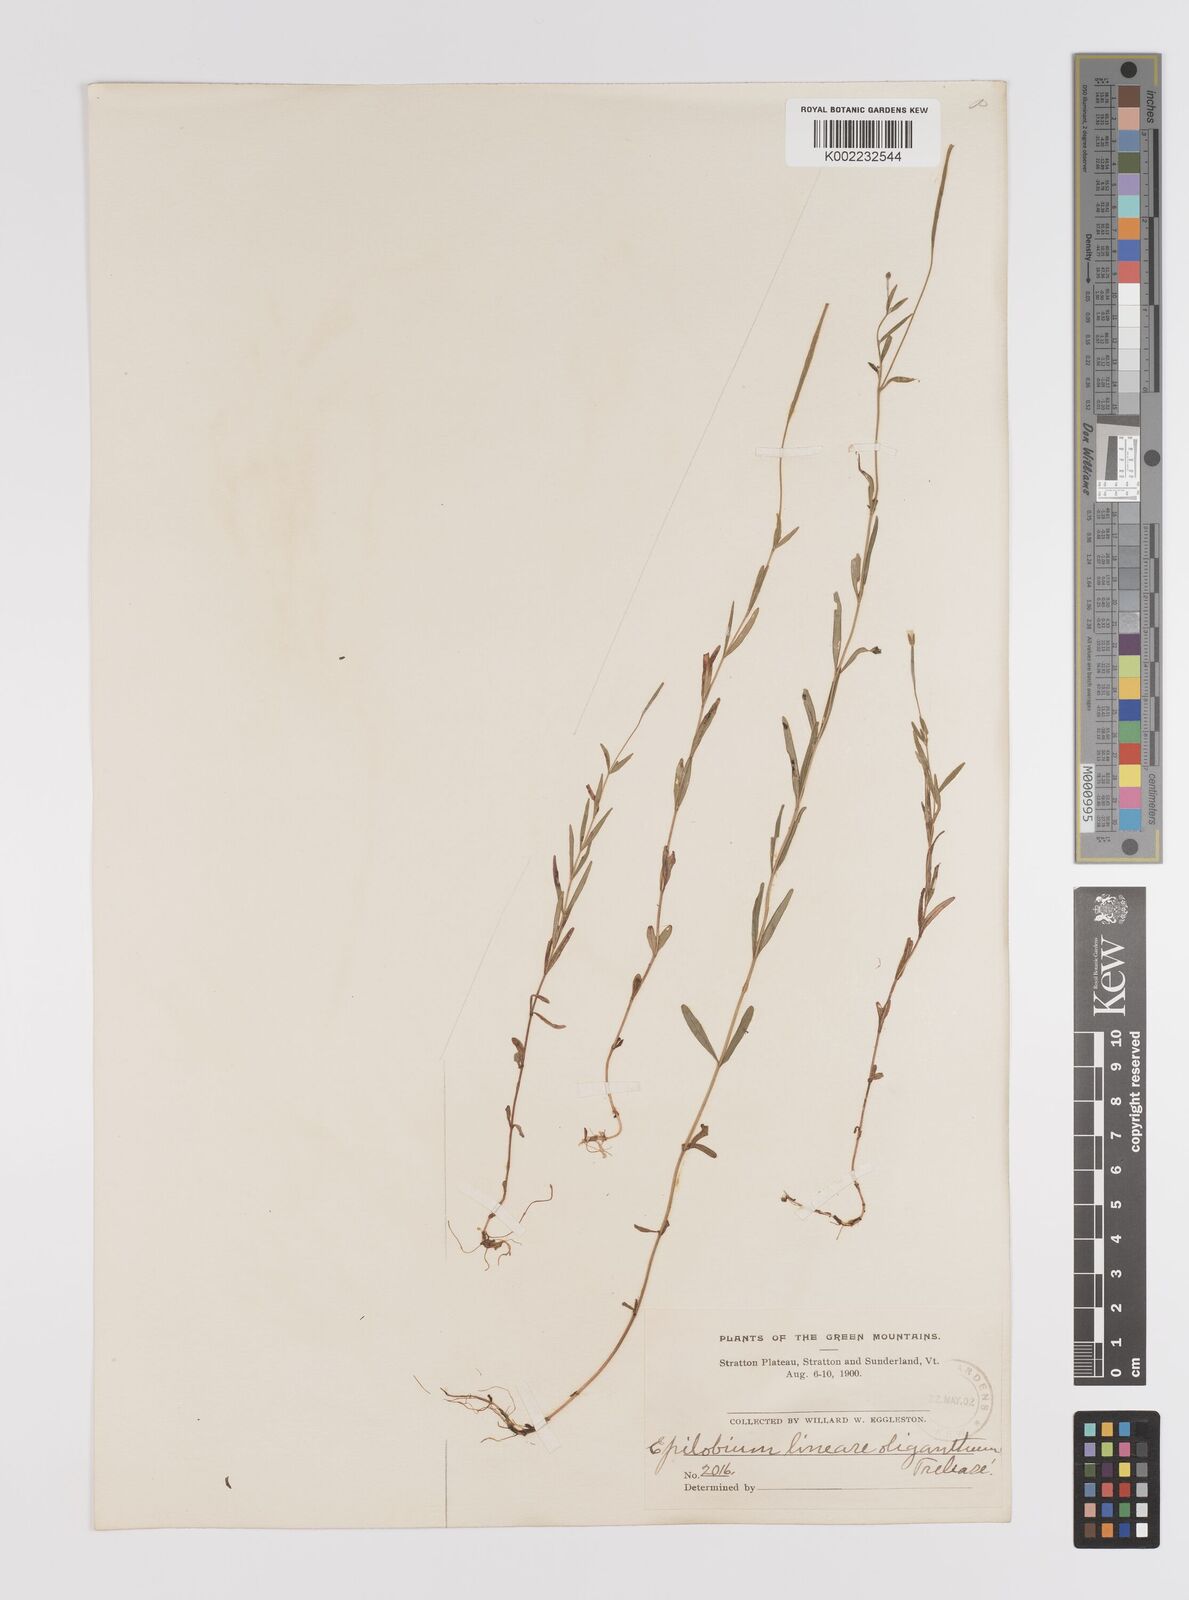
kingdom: Plantae
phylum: Tracheophyta
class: Magnoliopsida
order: Myrtales
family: Onagraceae
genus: Epilobium
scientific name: Epilobium palustre
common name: Marsh willowherb
